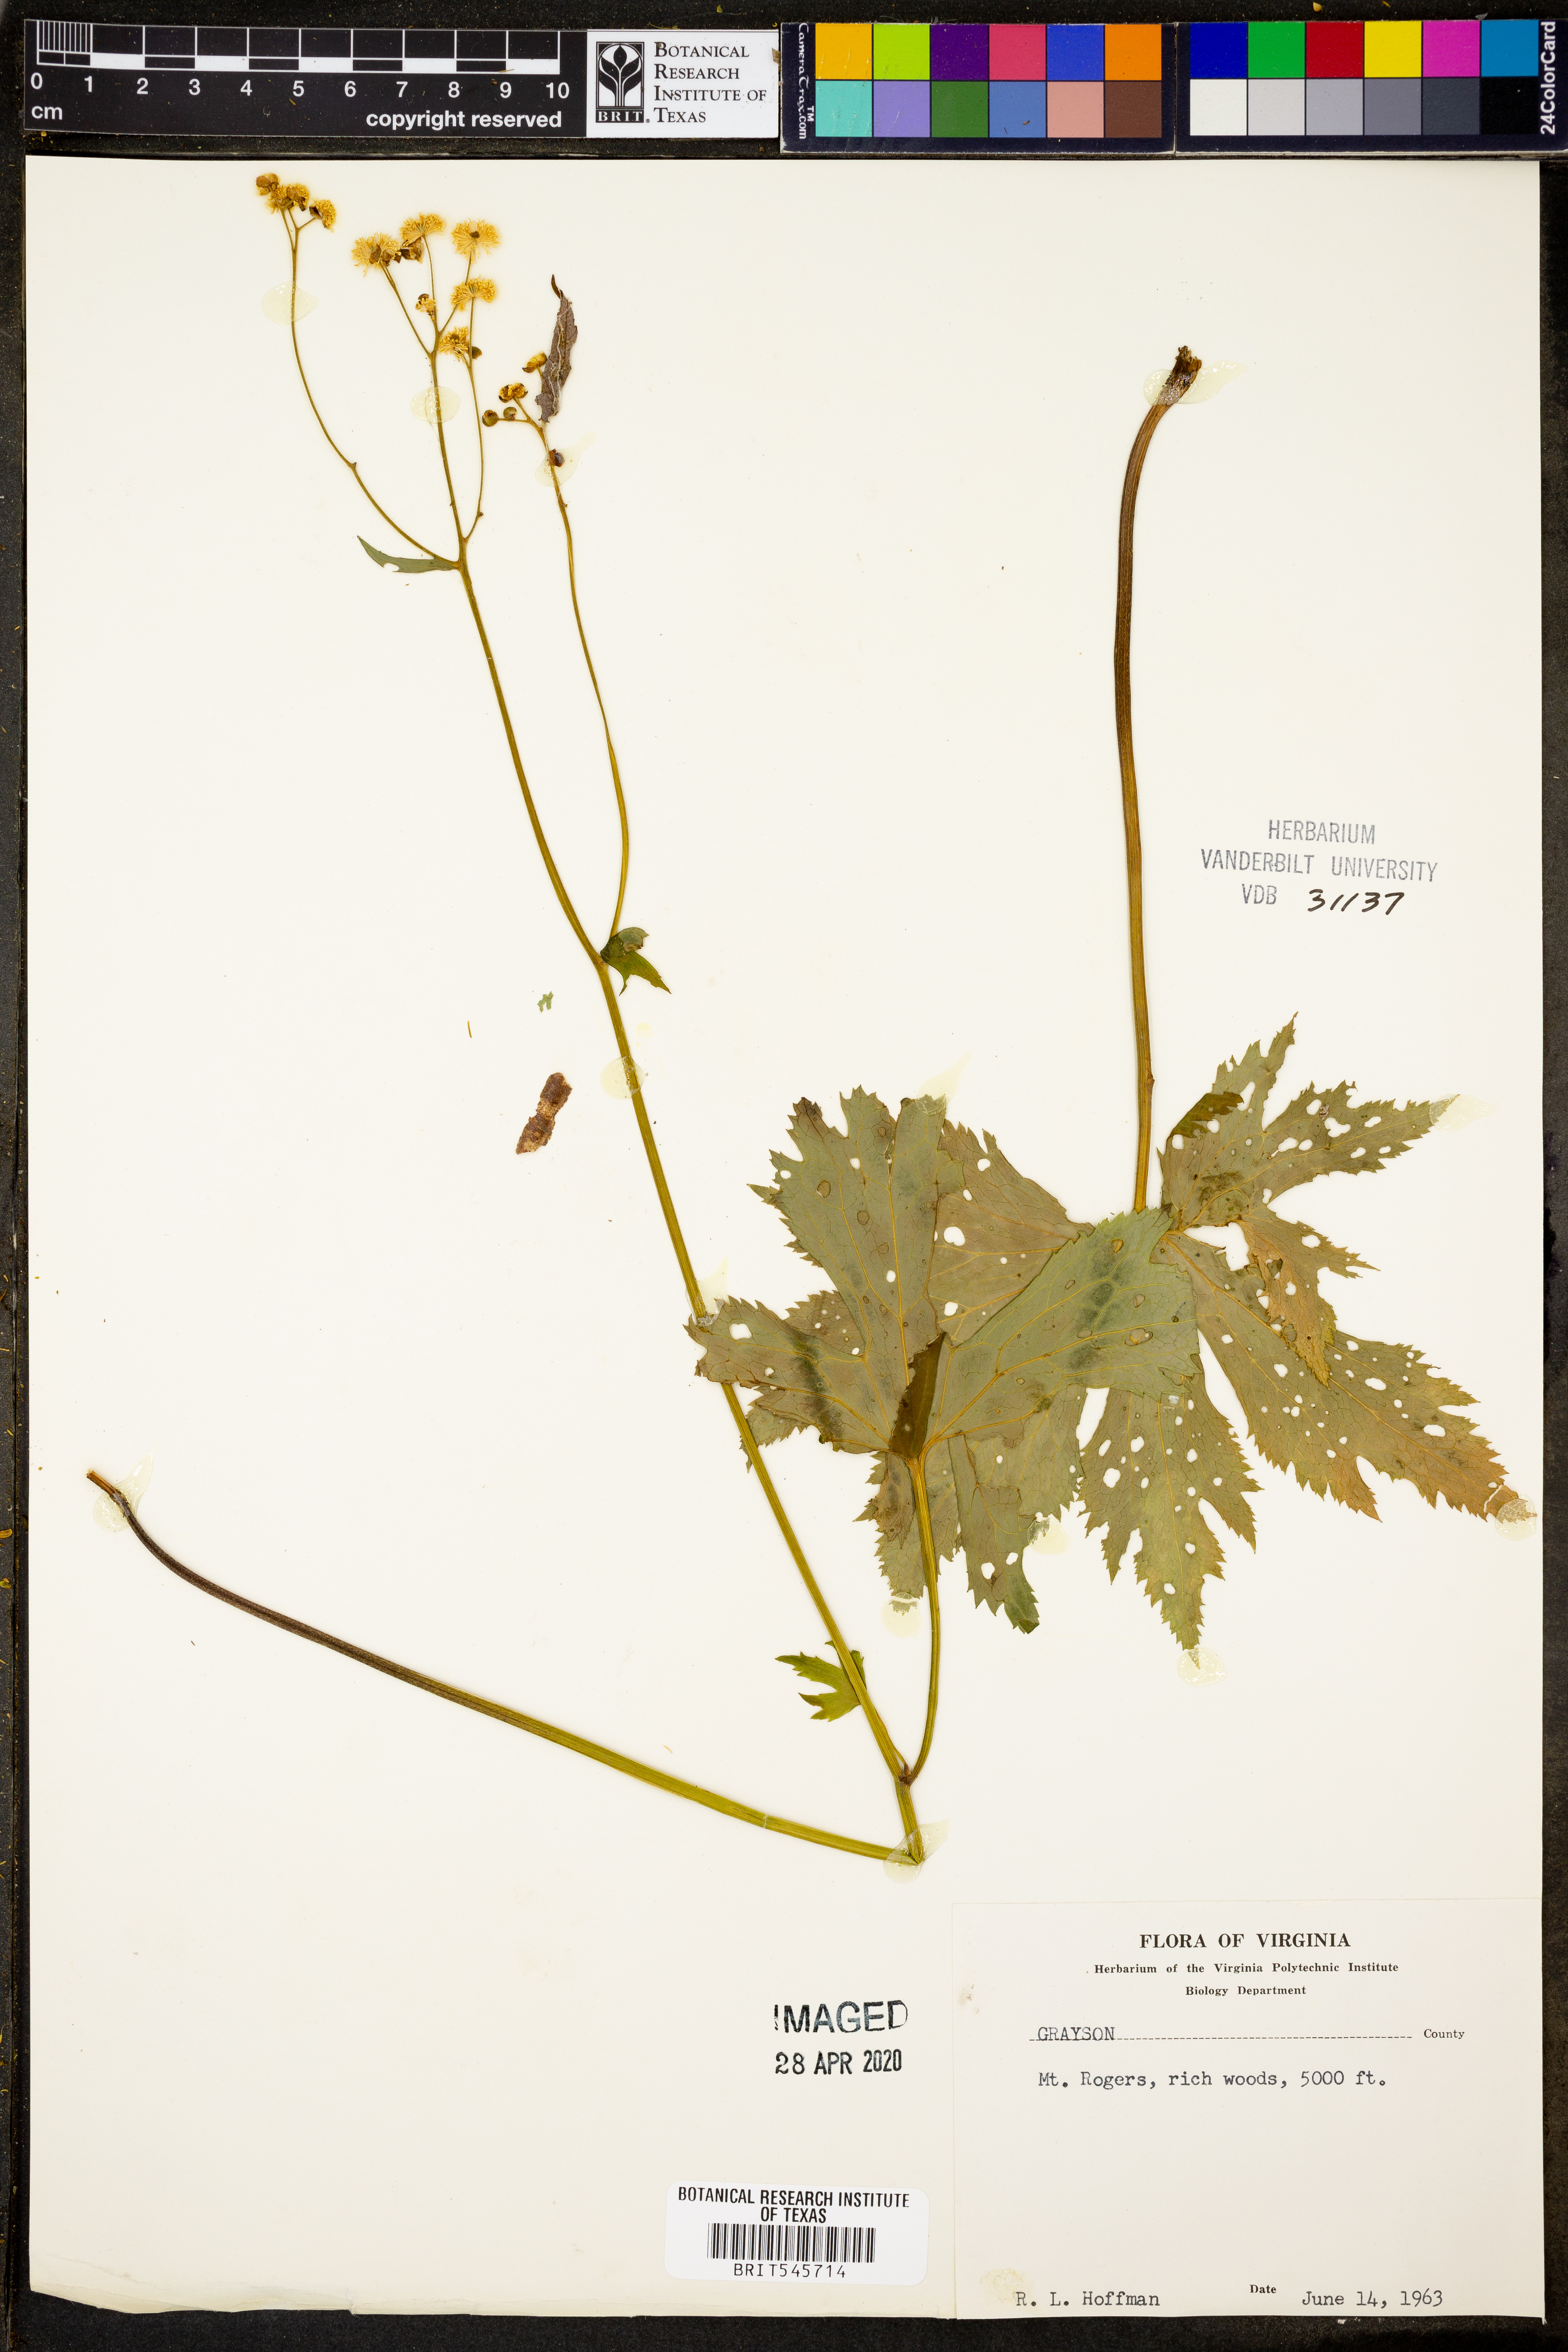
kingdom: Plantae
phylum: Tracheophyta
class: Magnoliopsida
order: Ranunculales
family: Ranunculaceae
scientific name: Ranunculaceae
